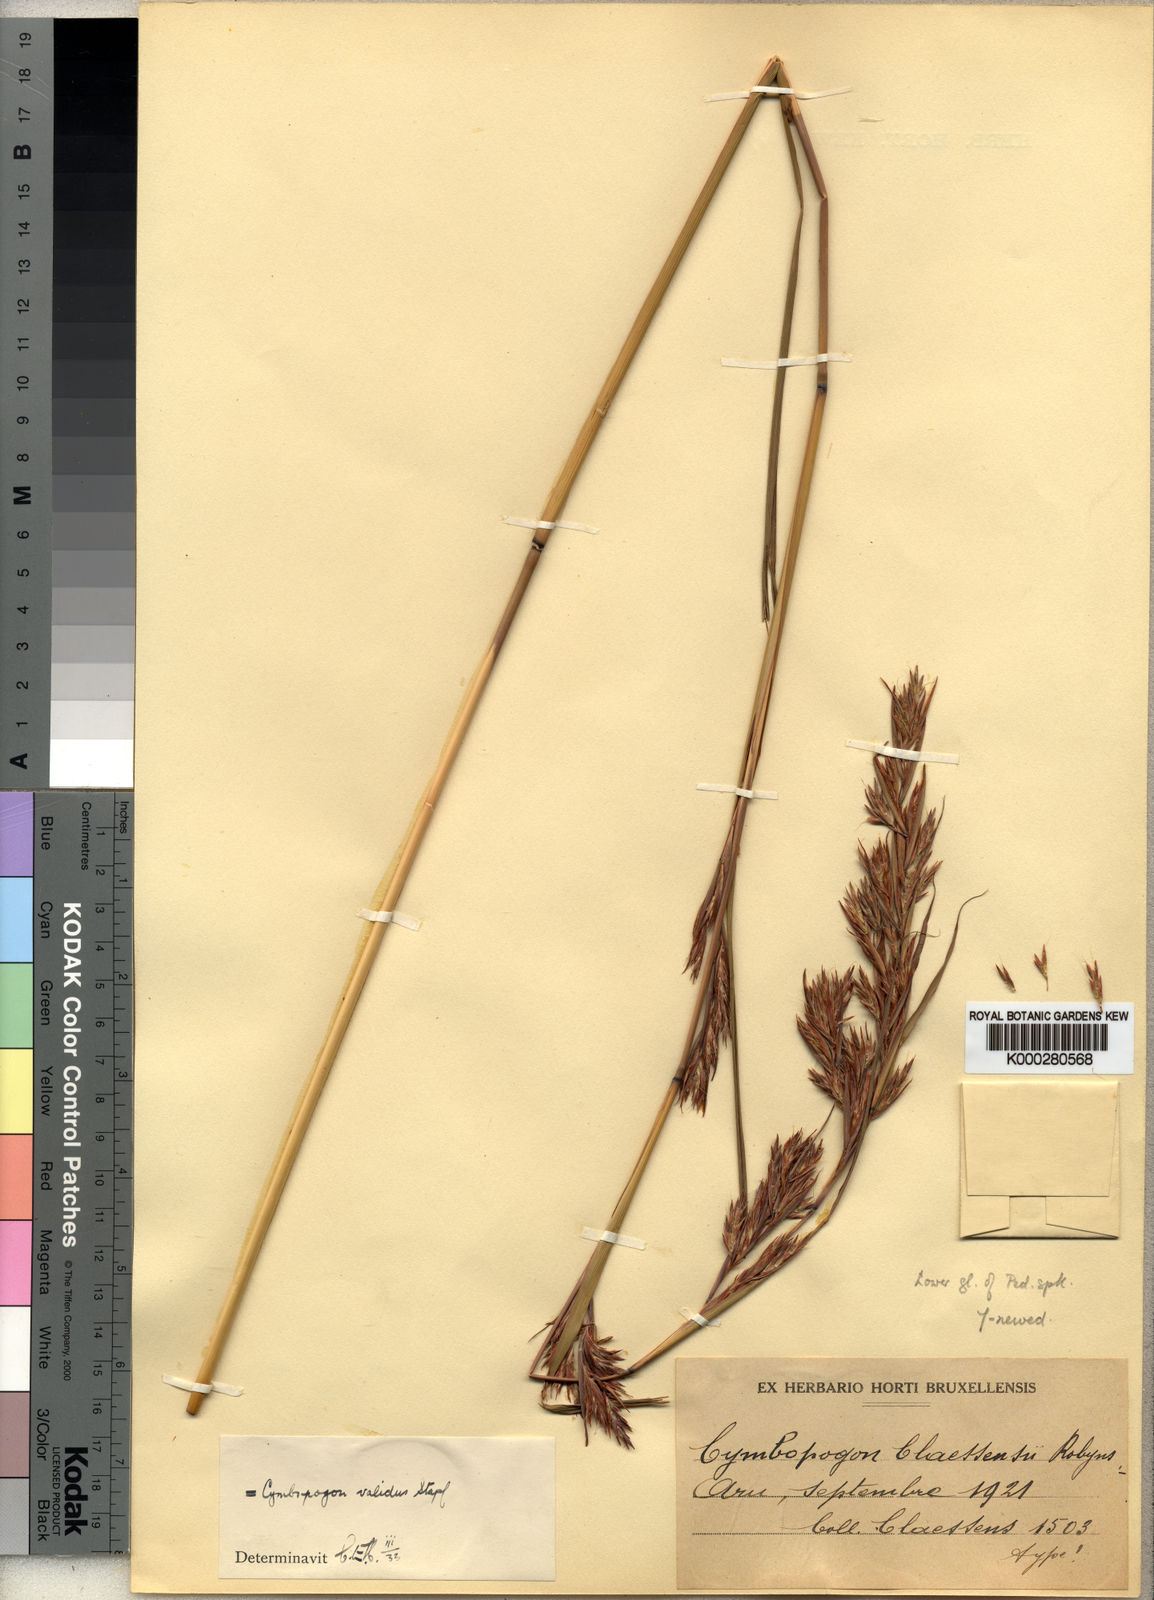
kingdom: Plantae
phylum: Tracheophyta
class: Liliopsida
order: Poales
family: Poaceae
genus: Cymbopogon
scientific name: Cymbopogon nardus
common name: Giant turpentine grass
